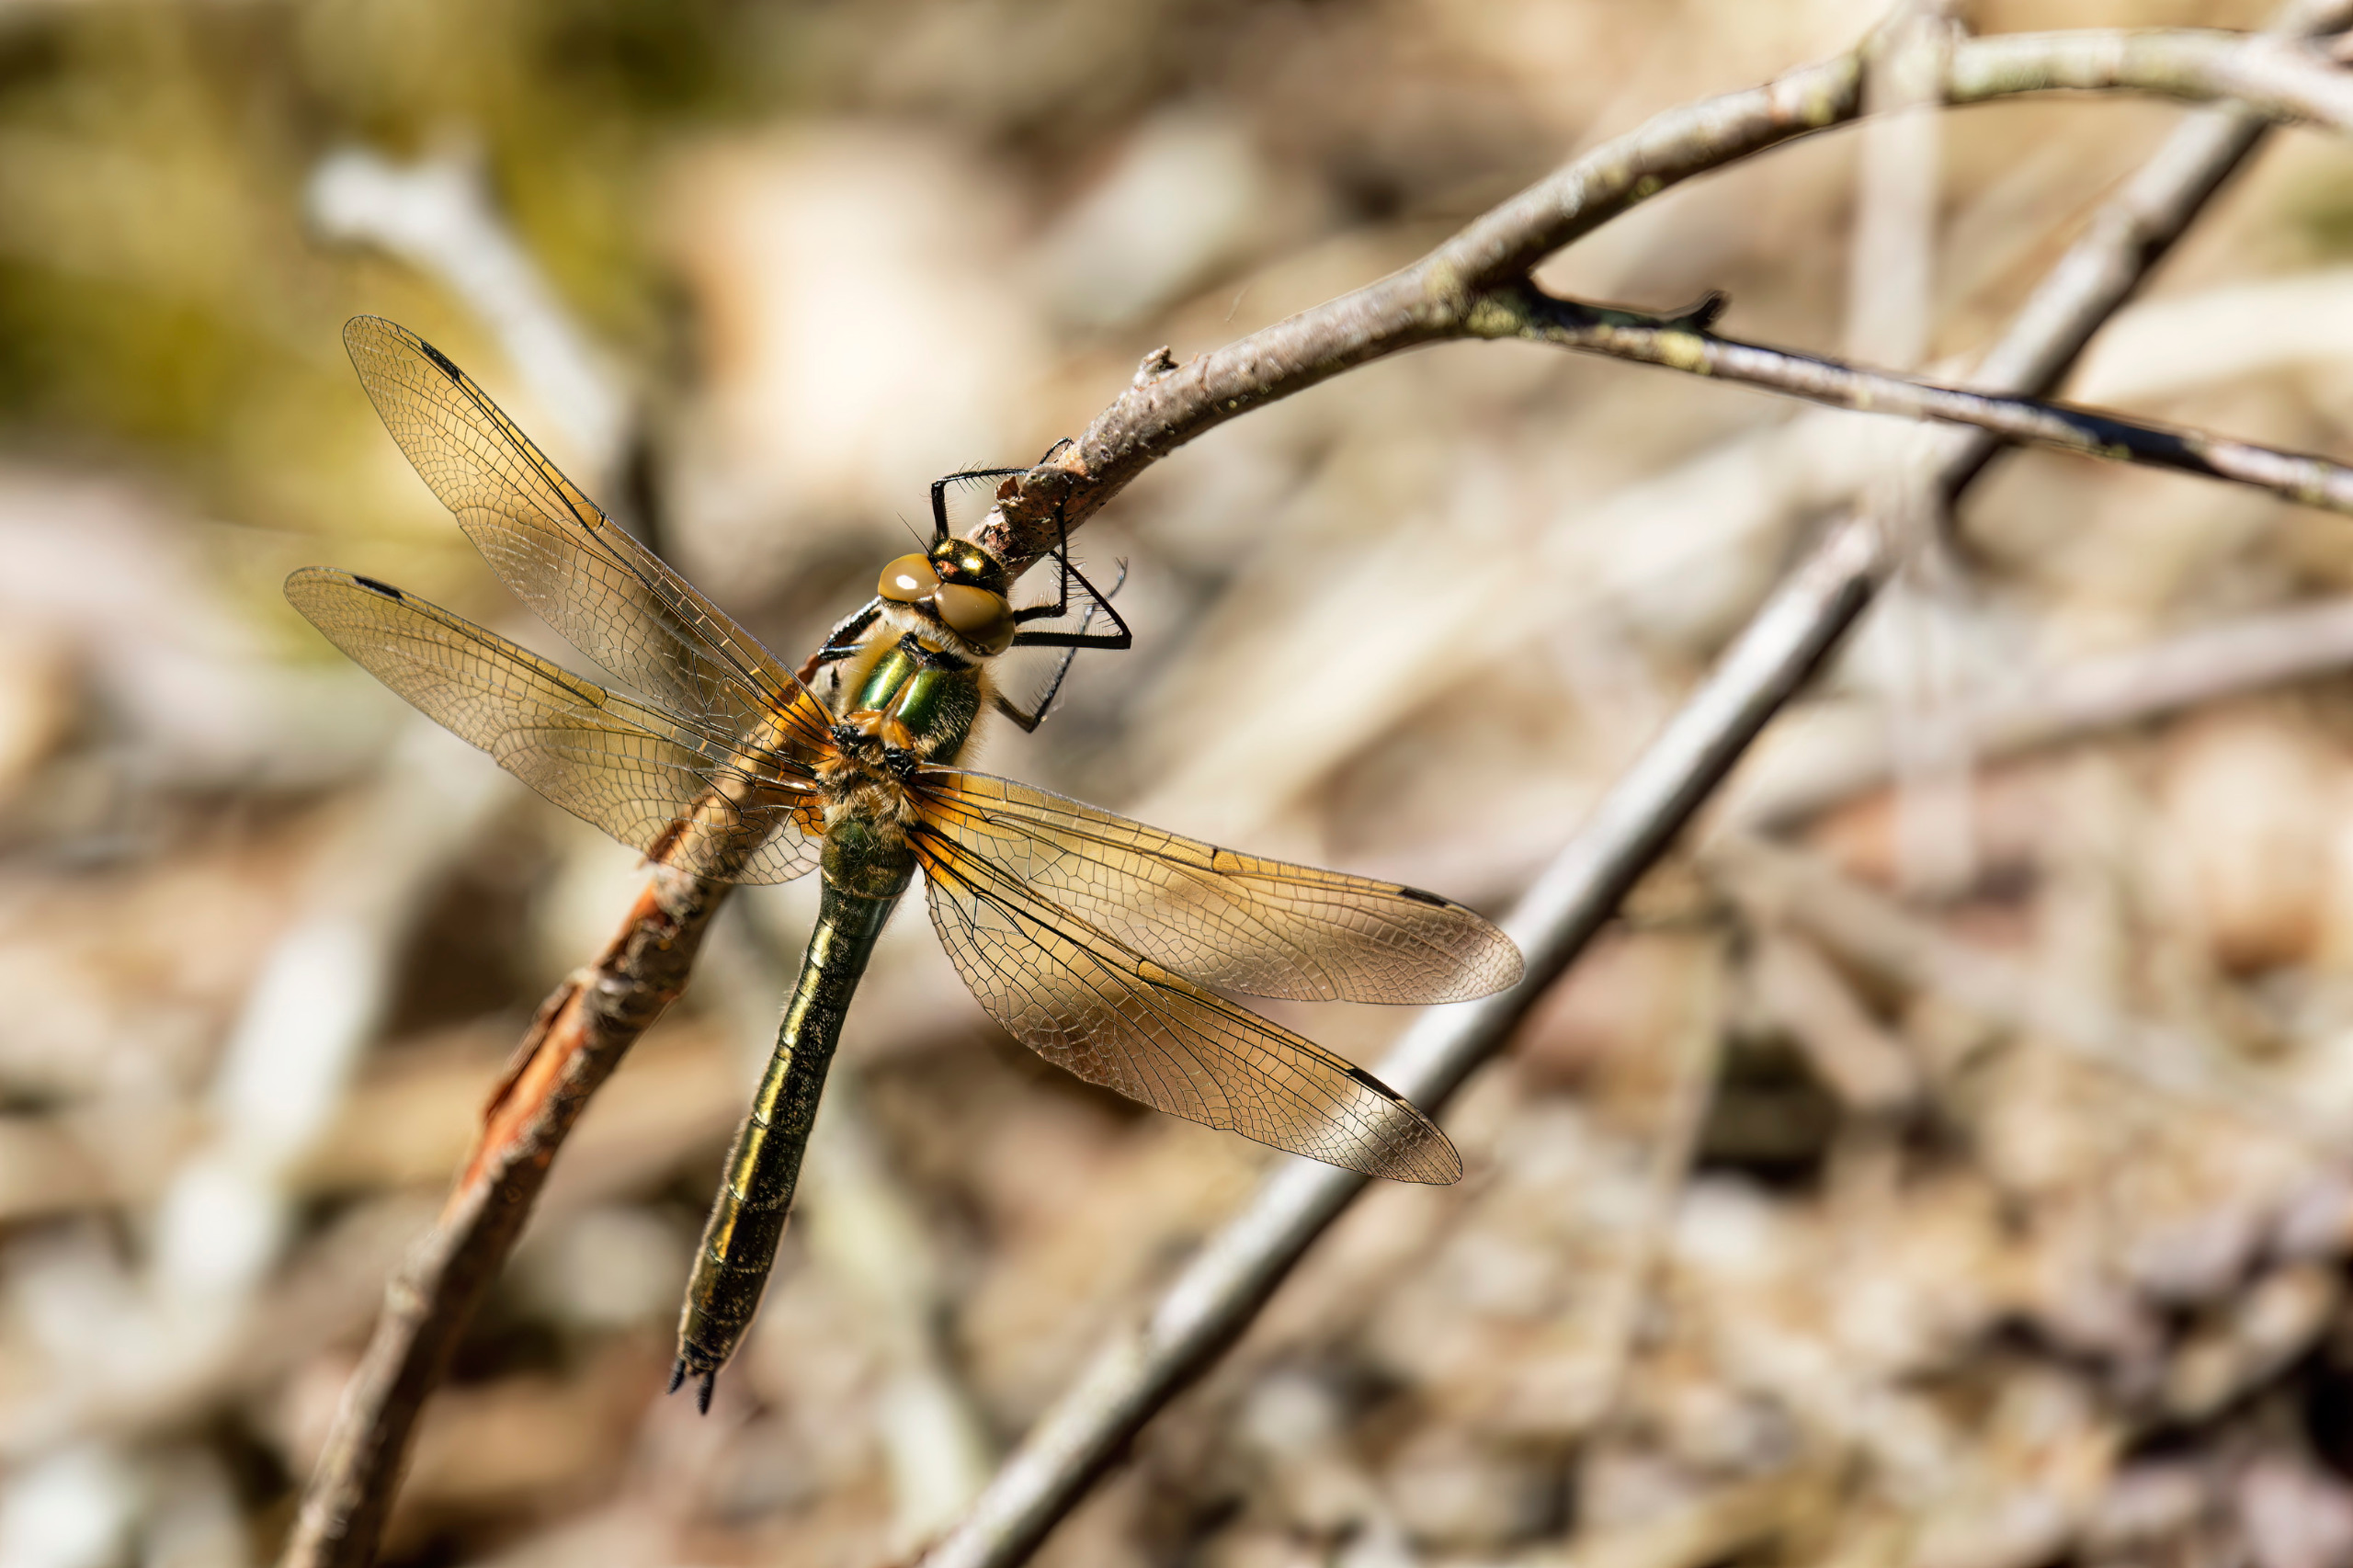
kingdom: Animalia
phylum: Arthropoda
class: Insecta
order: Odonata
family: Corduliidae
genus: Cordulia
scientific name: Cordulia aenea
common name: Grøn smaragdlibel
